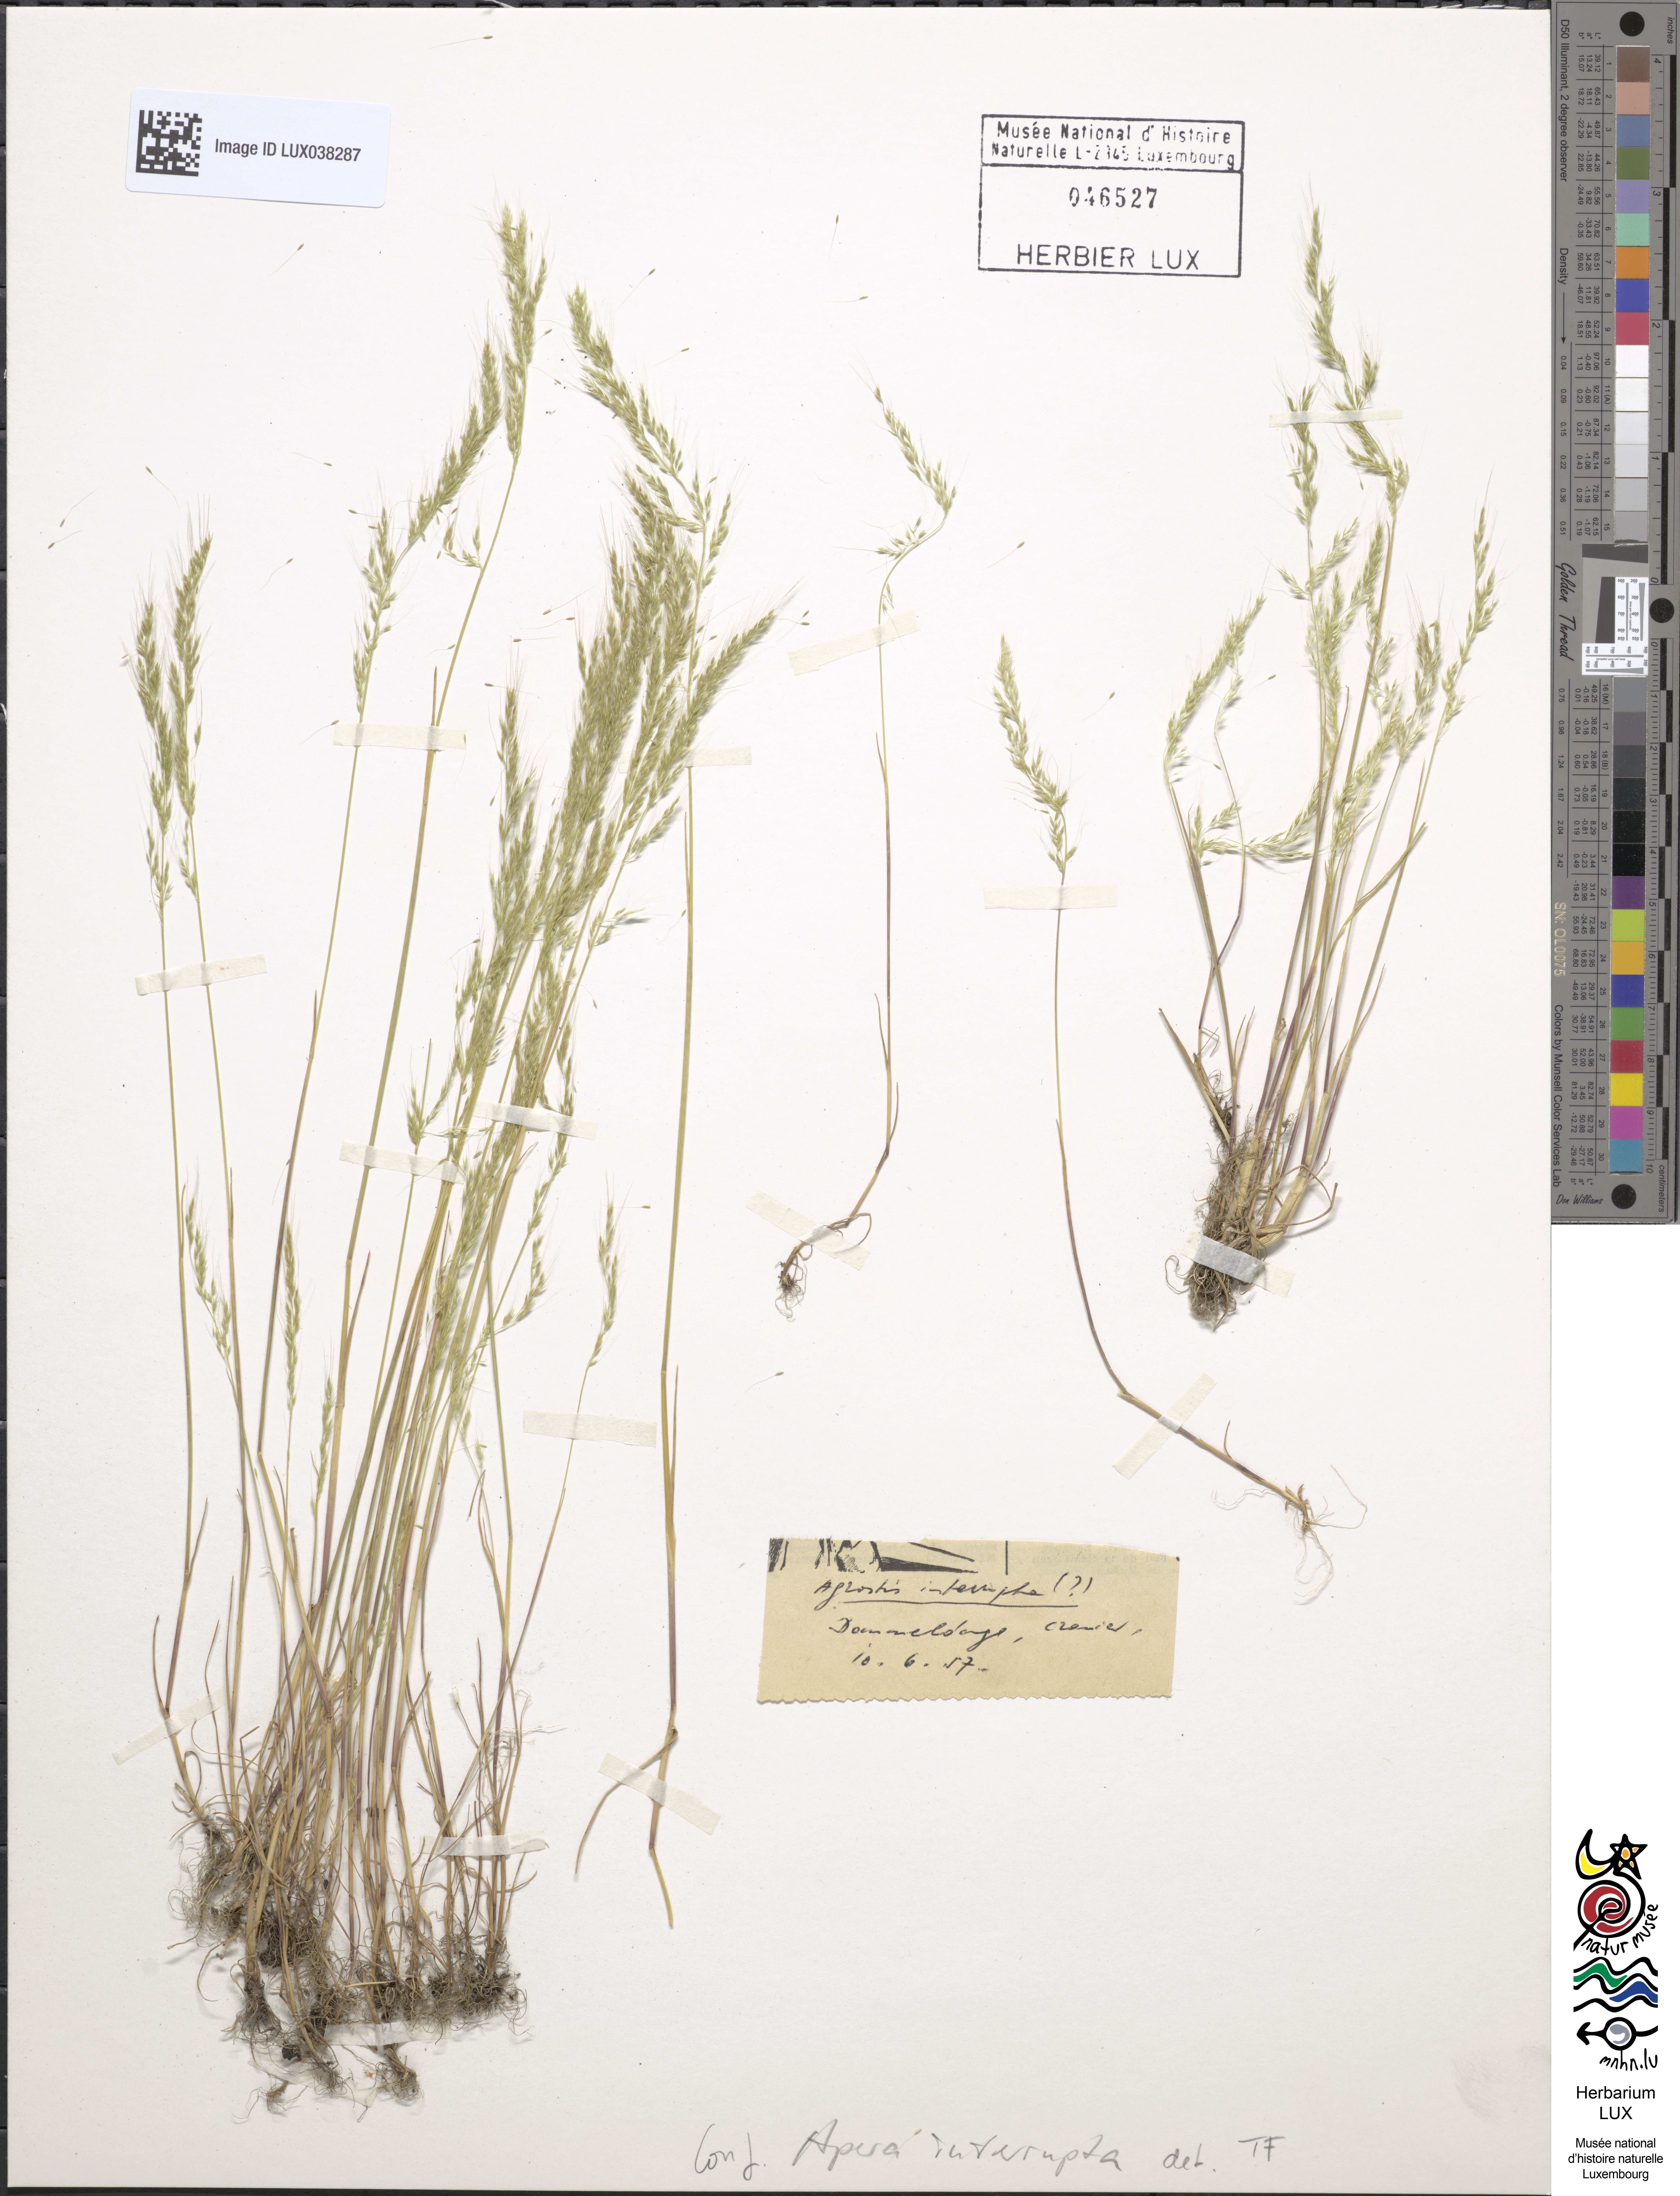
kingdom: Plantae
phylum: Tracheophyta
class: Liliopsida
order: Poales
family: Poaceae
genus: Apera
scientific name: Apera interrupta
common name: Dense silky-bent
